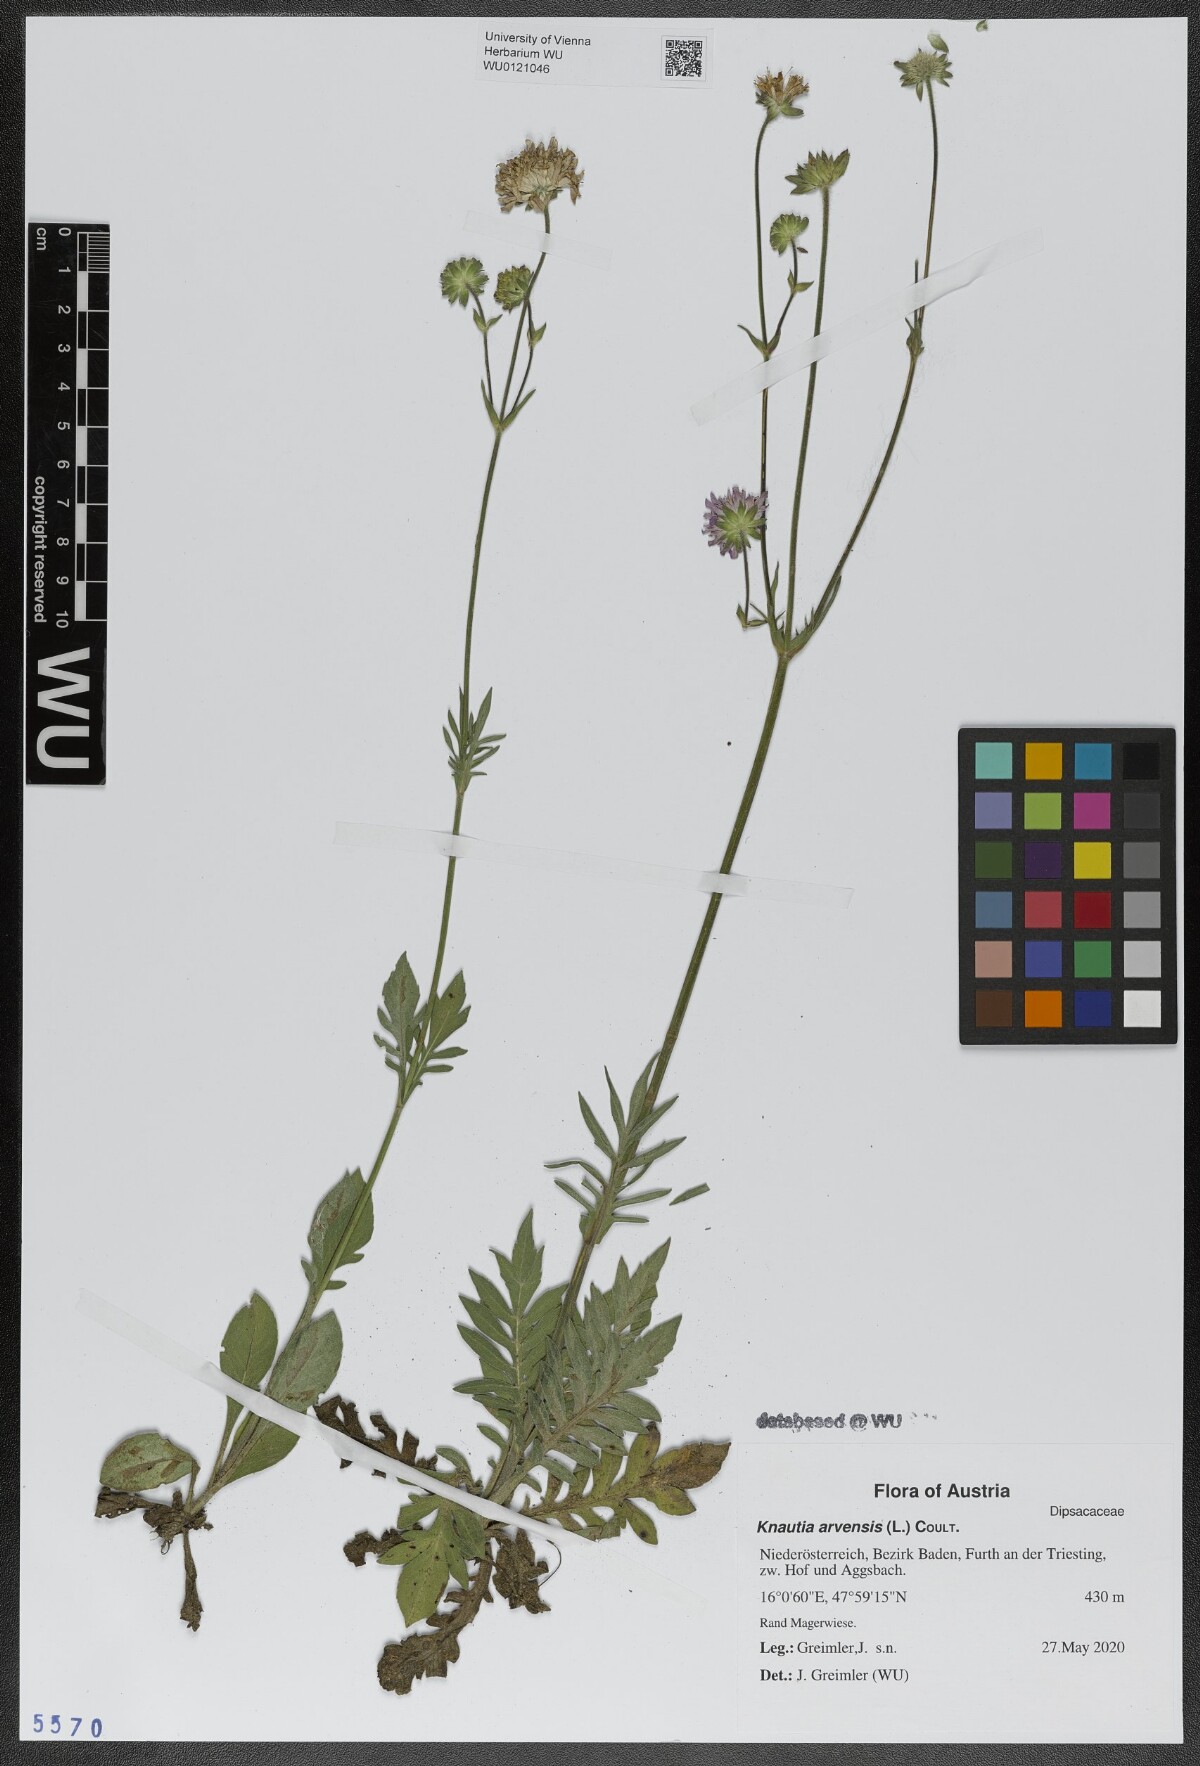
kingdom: Plantae
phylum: Tracheophyta
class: Magnoliopsida
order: Dipsacales
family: Caprifoliaceae
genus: Knautia
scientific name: Knautia arvensis
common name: Field scabiosa
